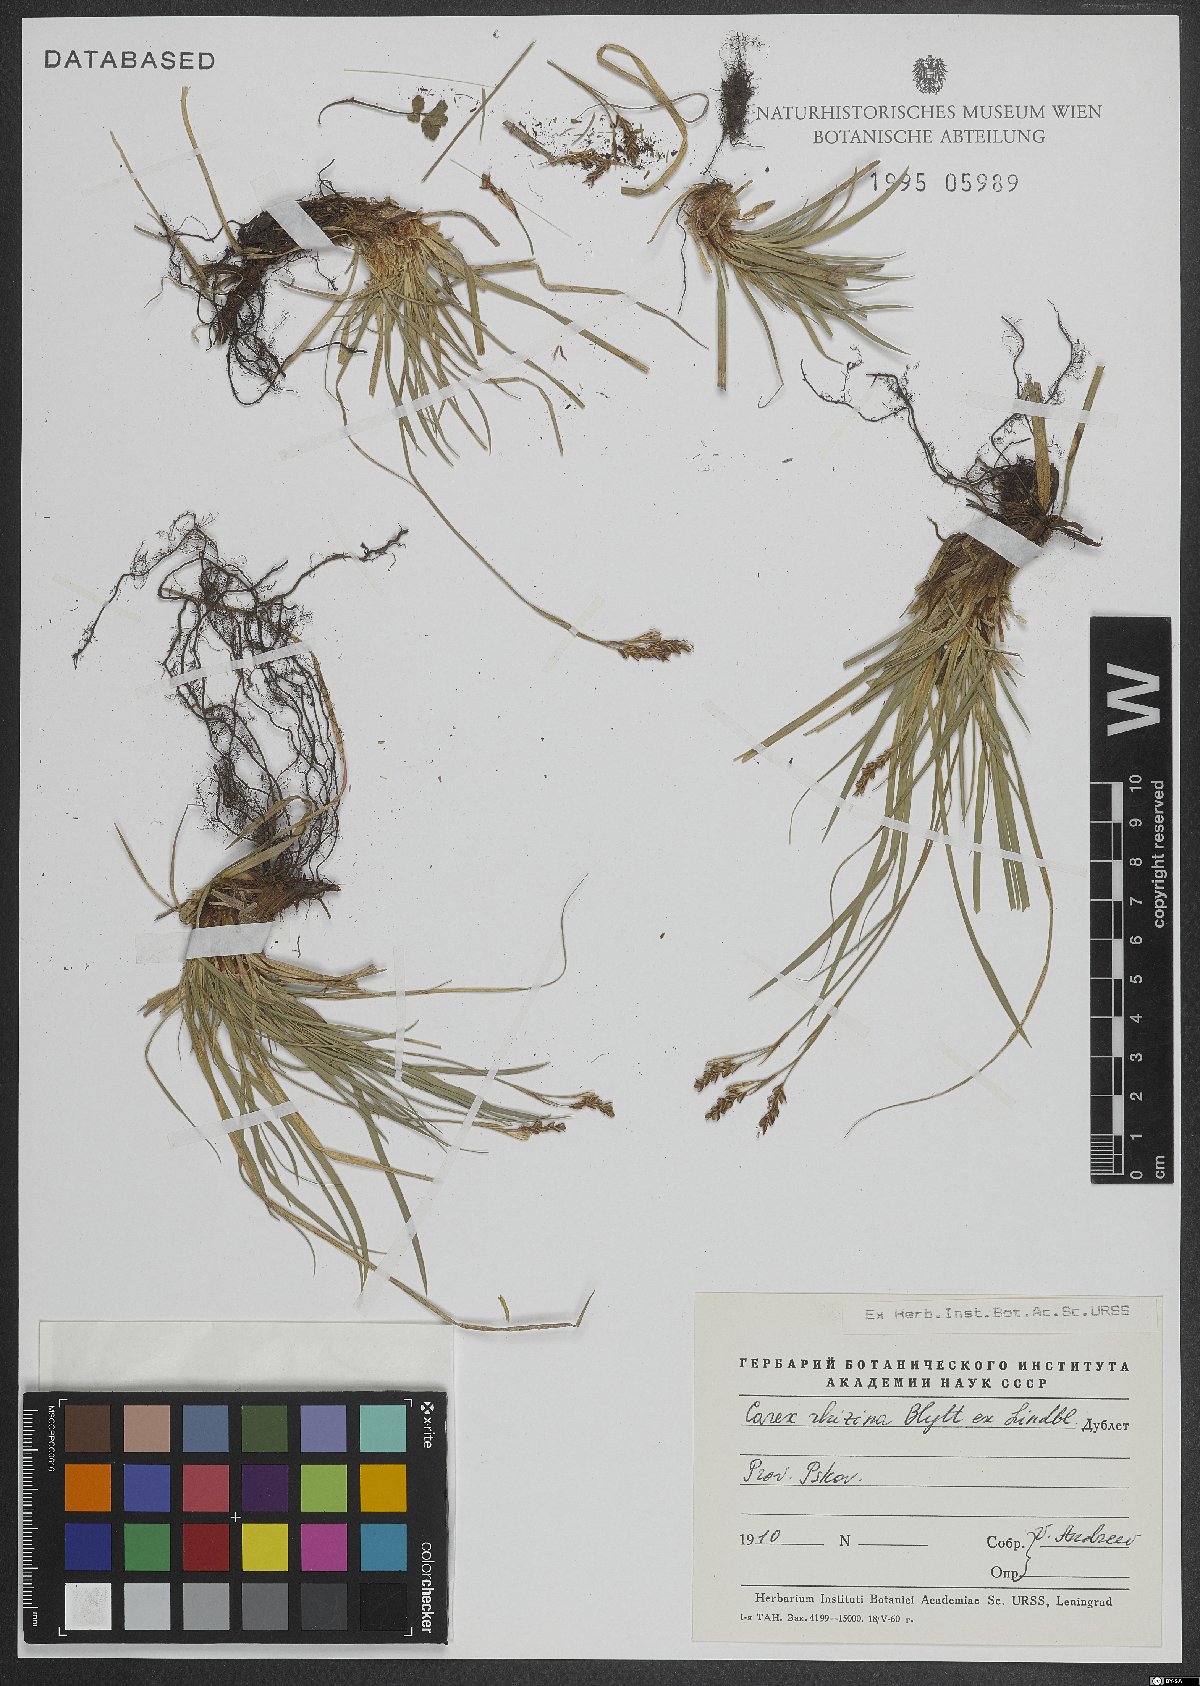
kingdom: Plantae
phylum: Tracheophyta
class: Liliopsida
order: Poales
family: Cyperaceae
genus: Carex
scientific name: Carex rhizina
